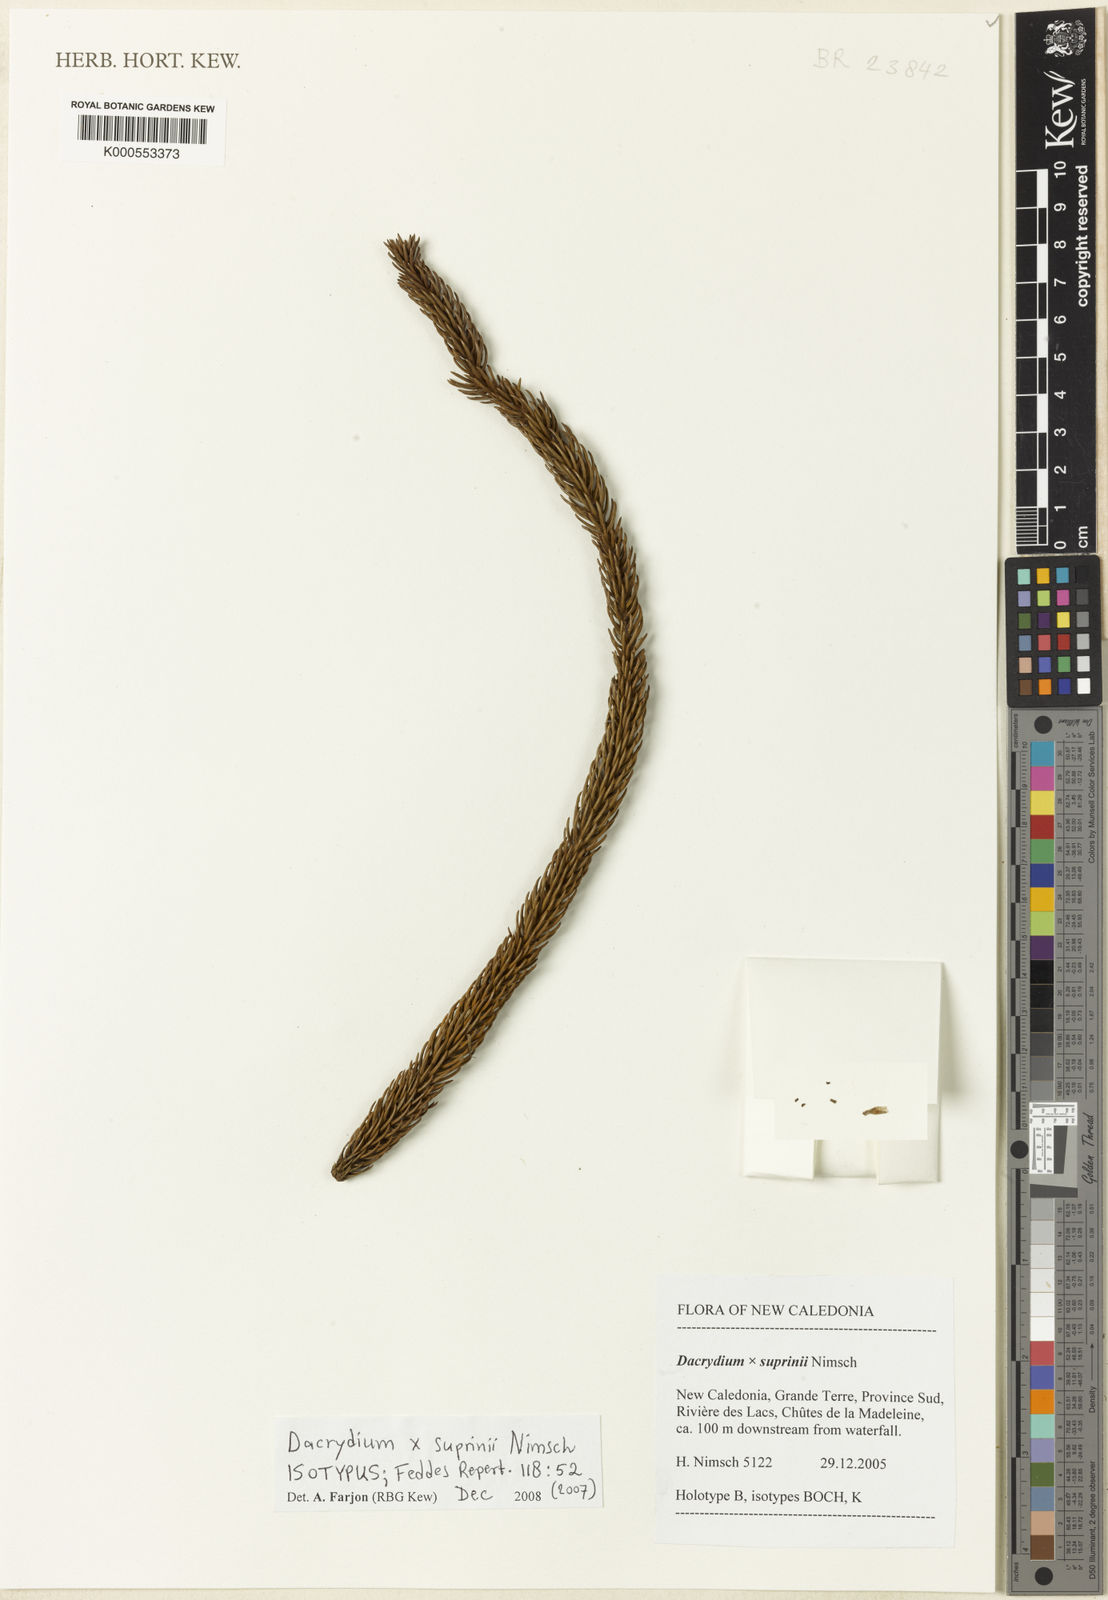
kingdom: Plantae
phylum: Tracheophyta
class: Pinopsida
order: Pinales
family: Podocarpaceae
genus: Dacrydium
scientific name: Dacrydium suprinii
